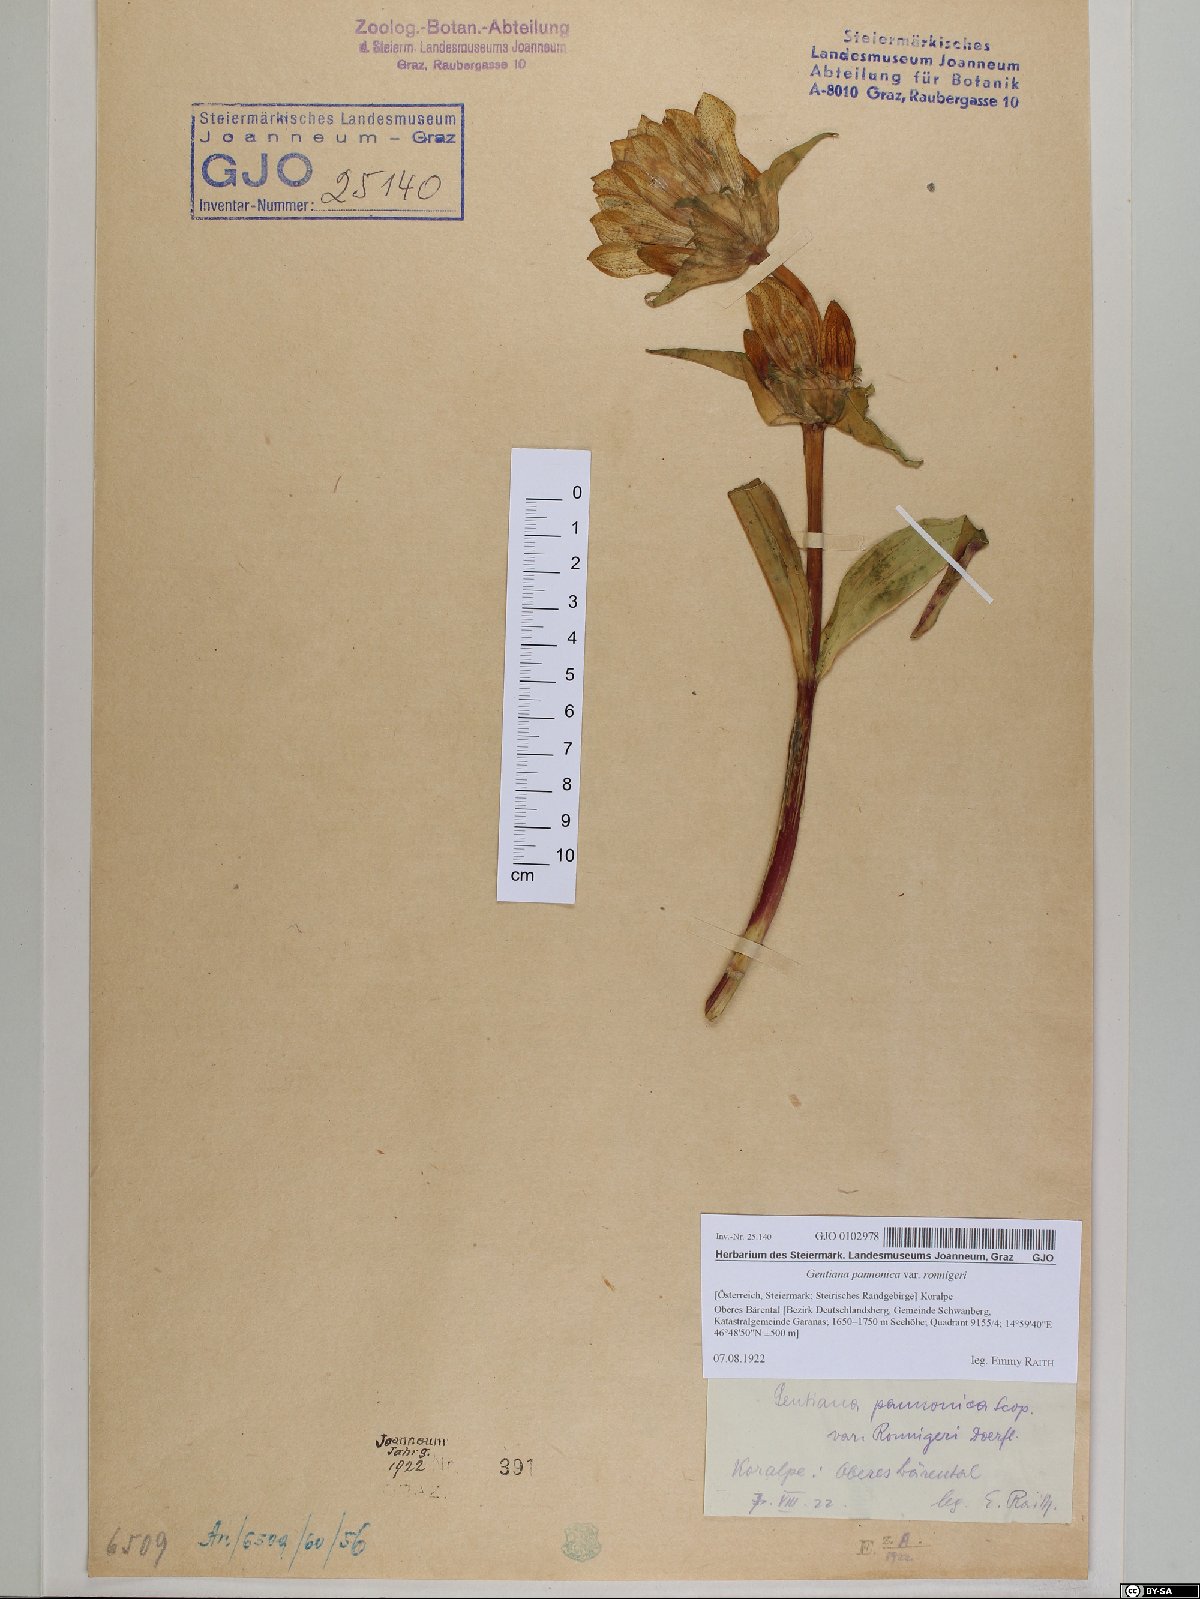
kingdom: Plantae
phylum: Tracheophyta
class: Magnoliopsida
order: Gentianales
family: Gentianaceae
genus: Gentiana
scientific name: Gentiana pannonica
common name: Hungarian gentian
